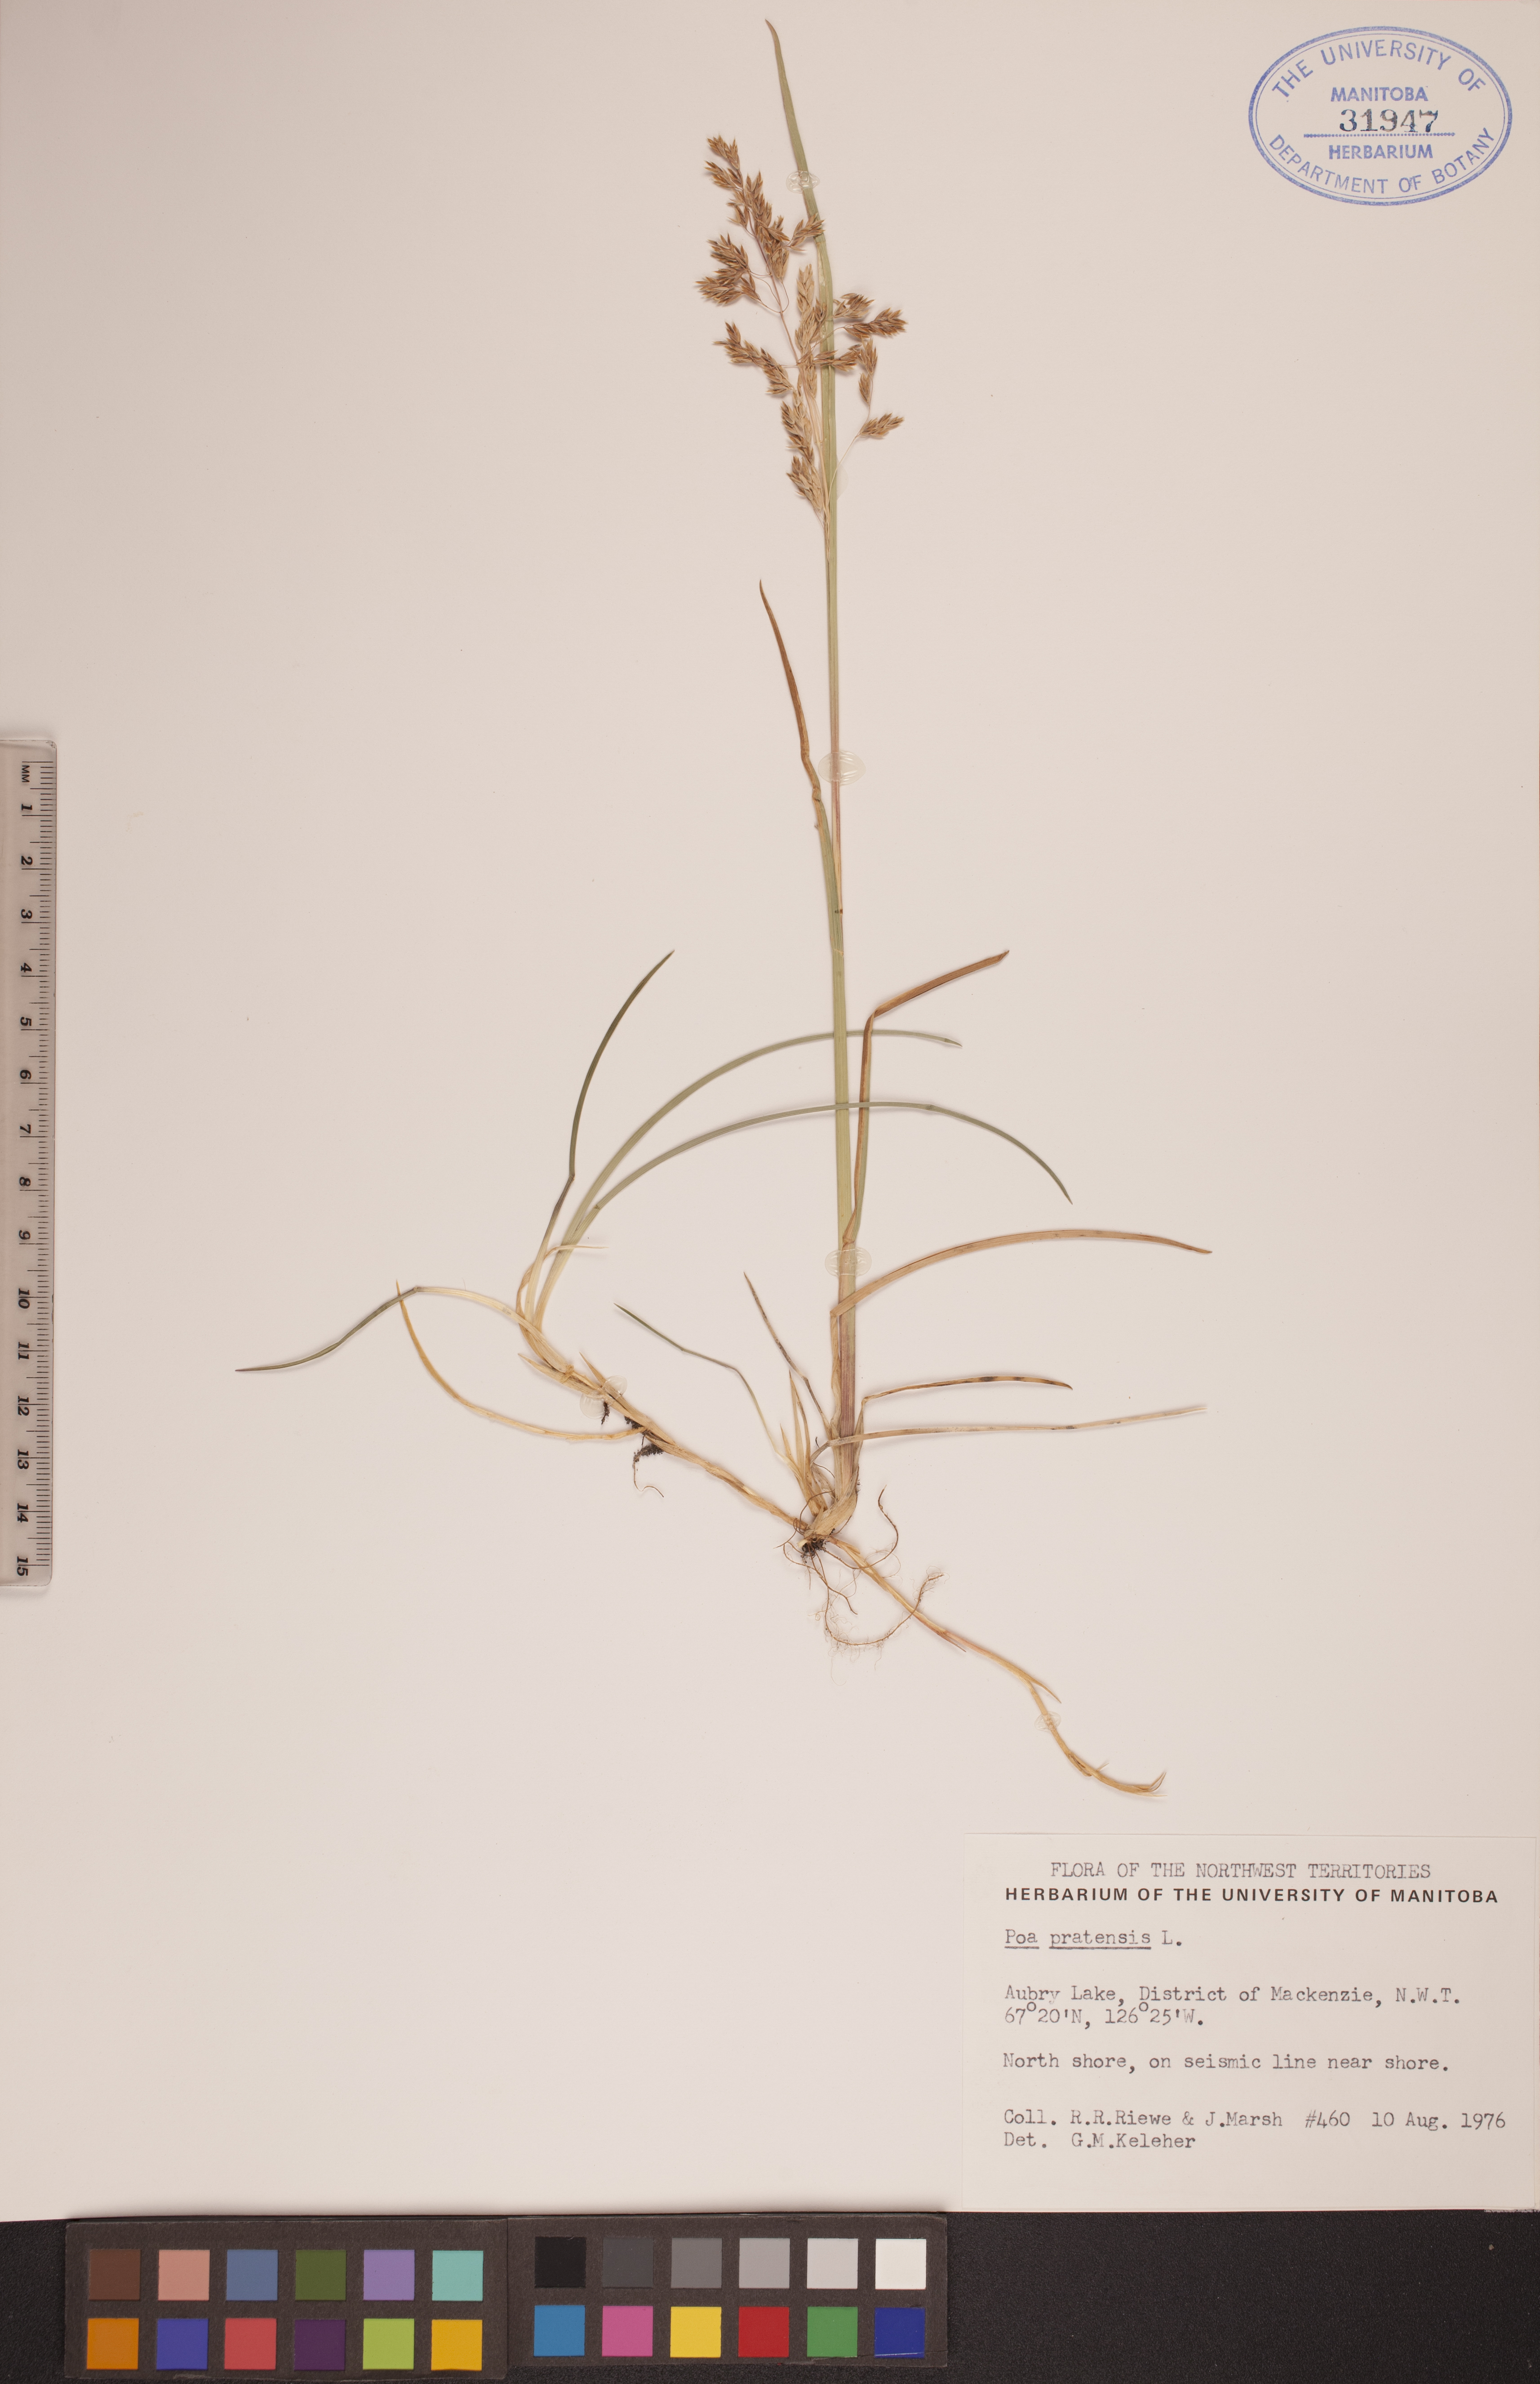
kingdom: Plantae
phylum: Tracheophyta
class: Liliopsida
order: Poales
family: Poaceae
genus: Poa
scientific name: Poa pratensis
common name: Kentucky bluegrass
